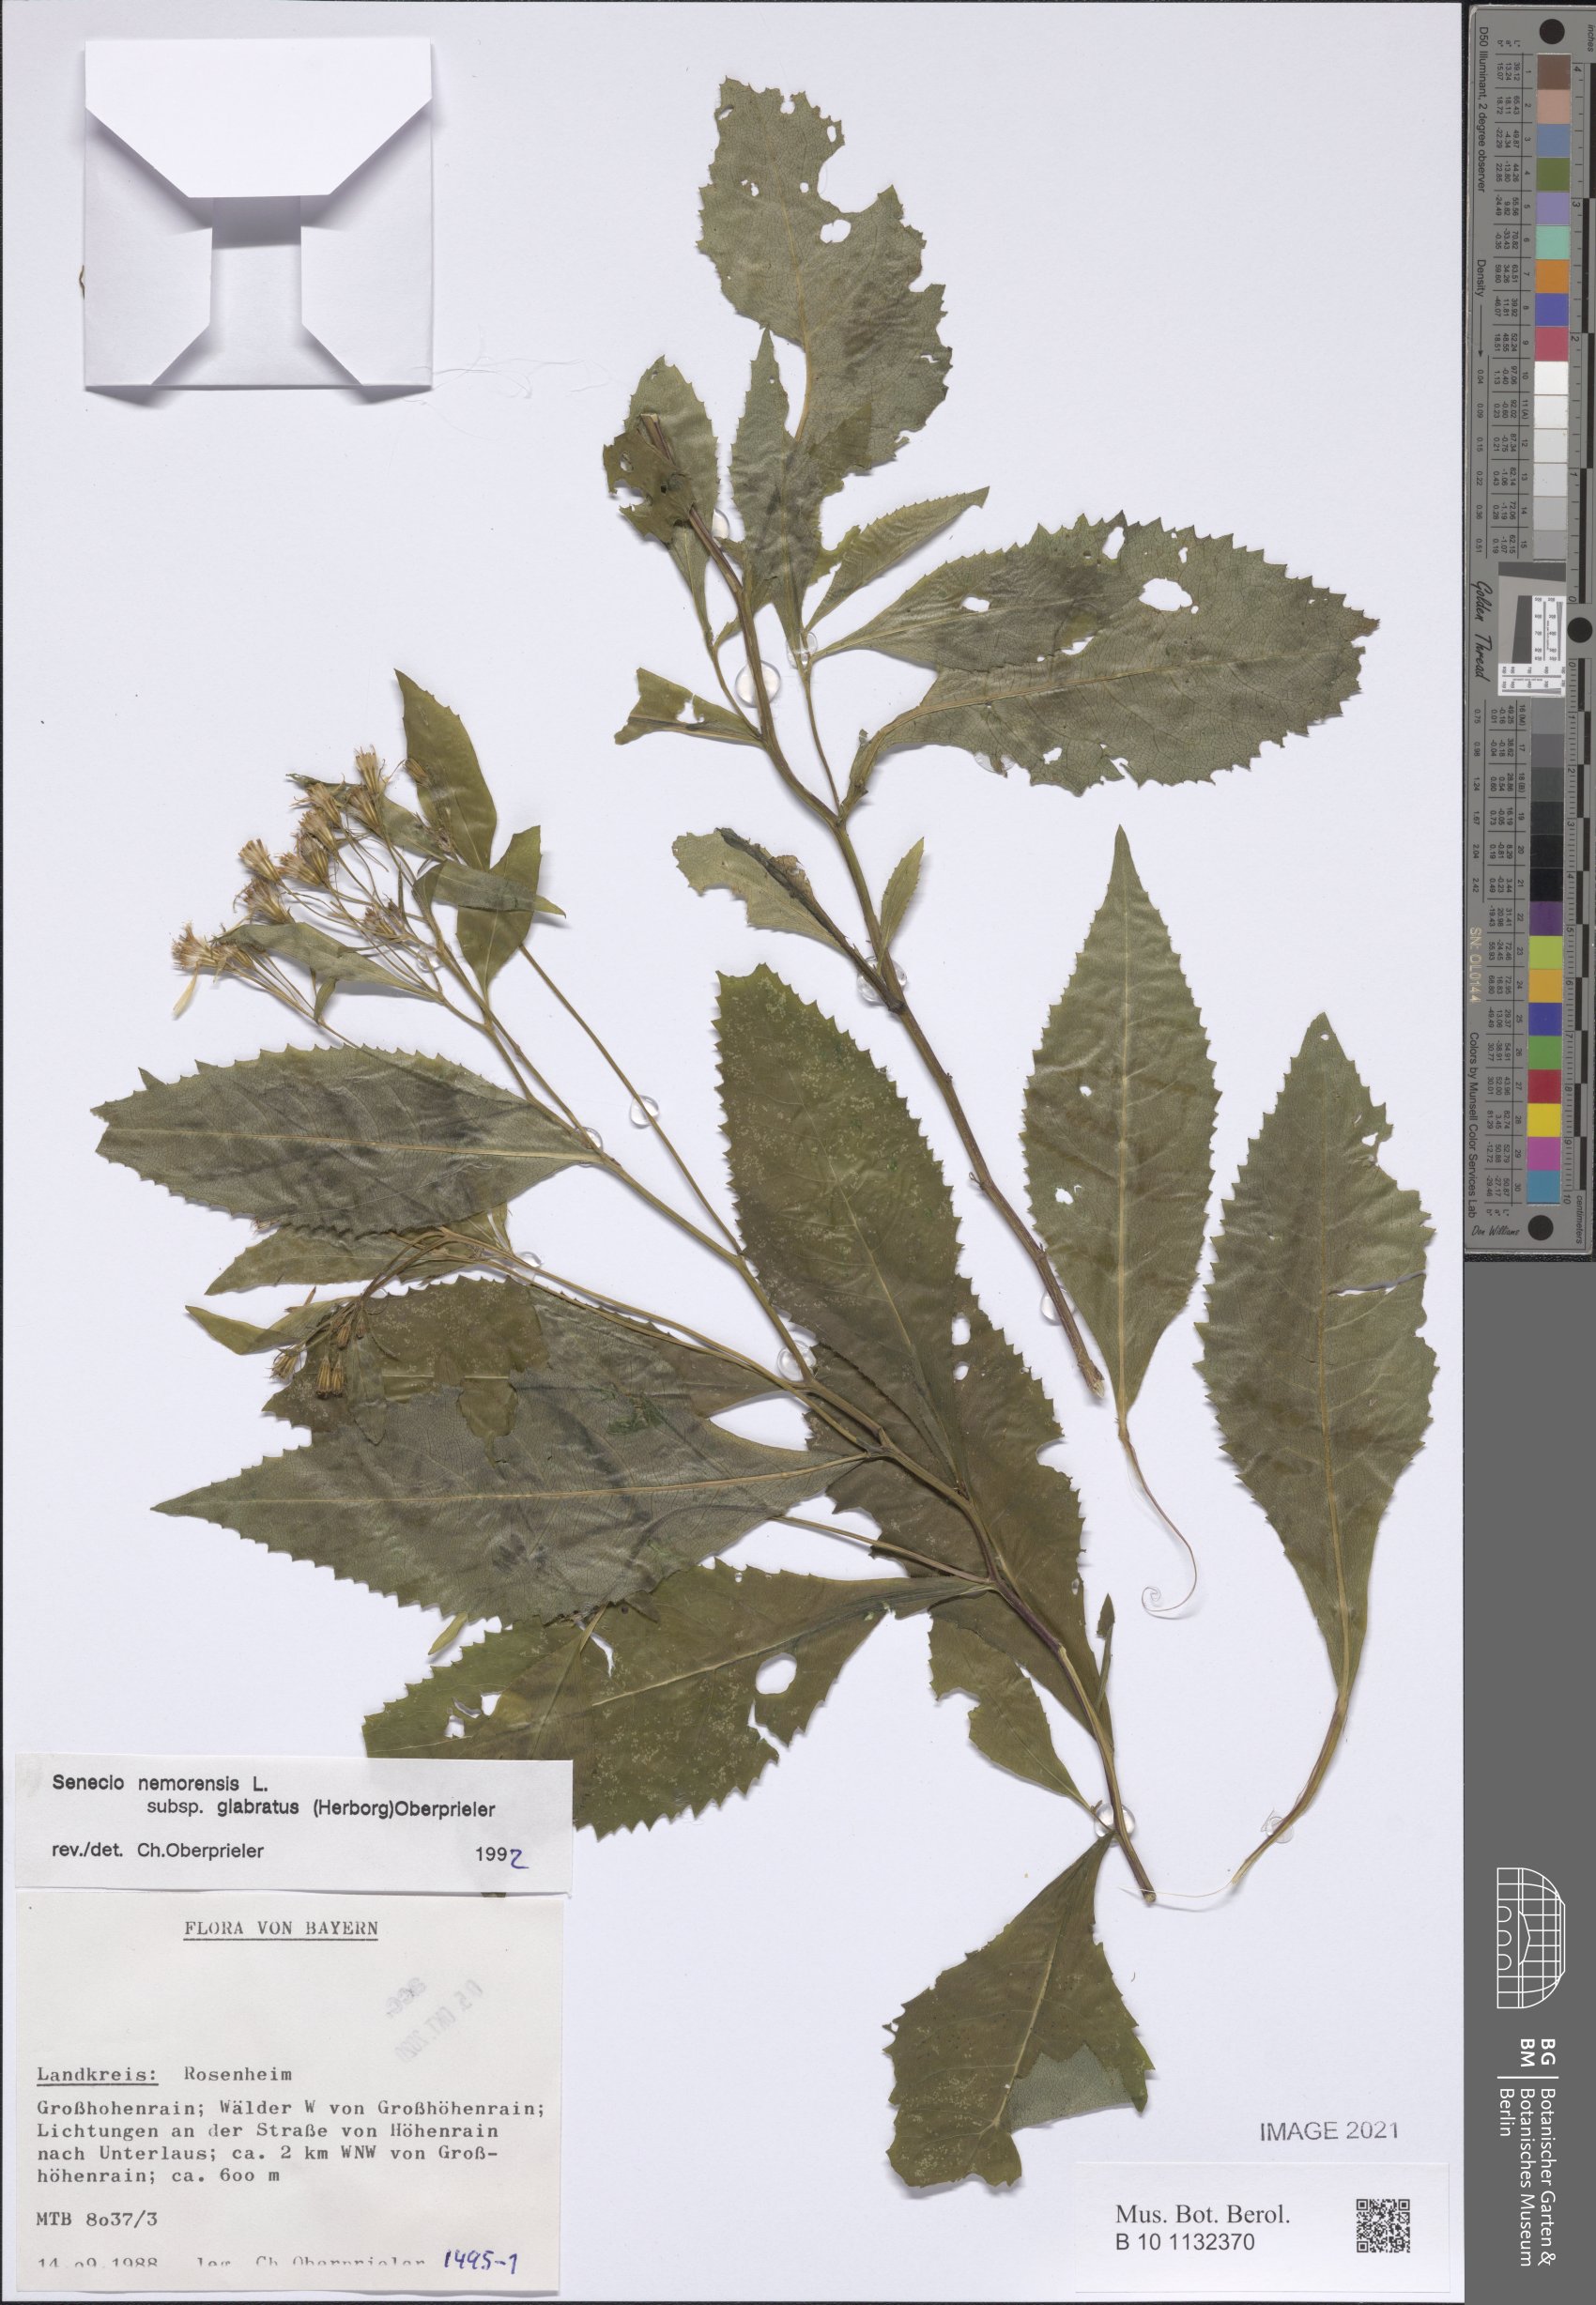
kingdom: Plantae
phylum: Tracheophyta
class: Magnoliopsida
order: Asterales
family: Asteraceae
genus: Senecio
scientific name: Senecio germanicus
